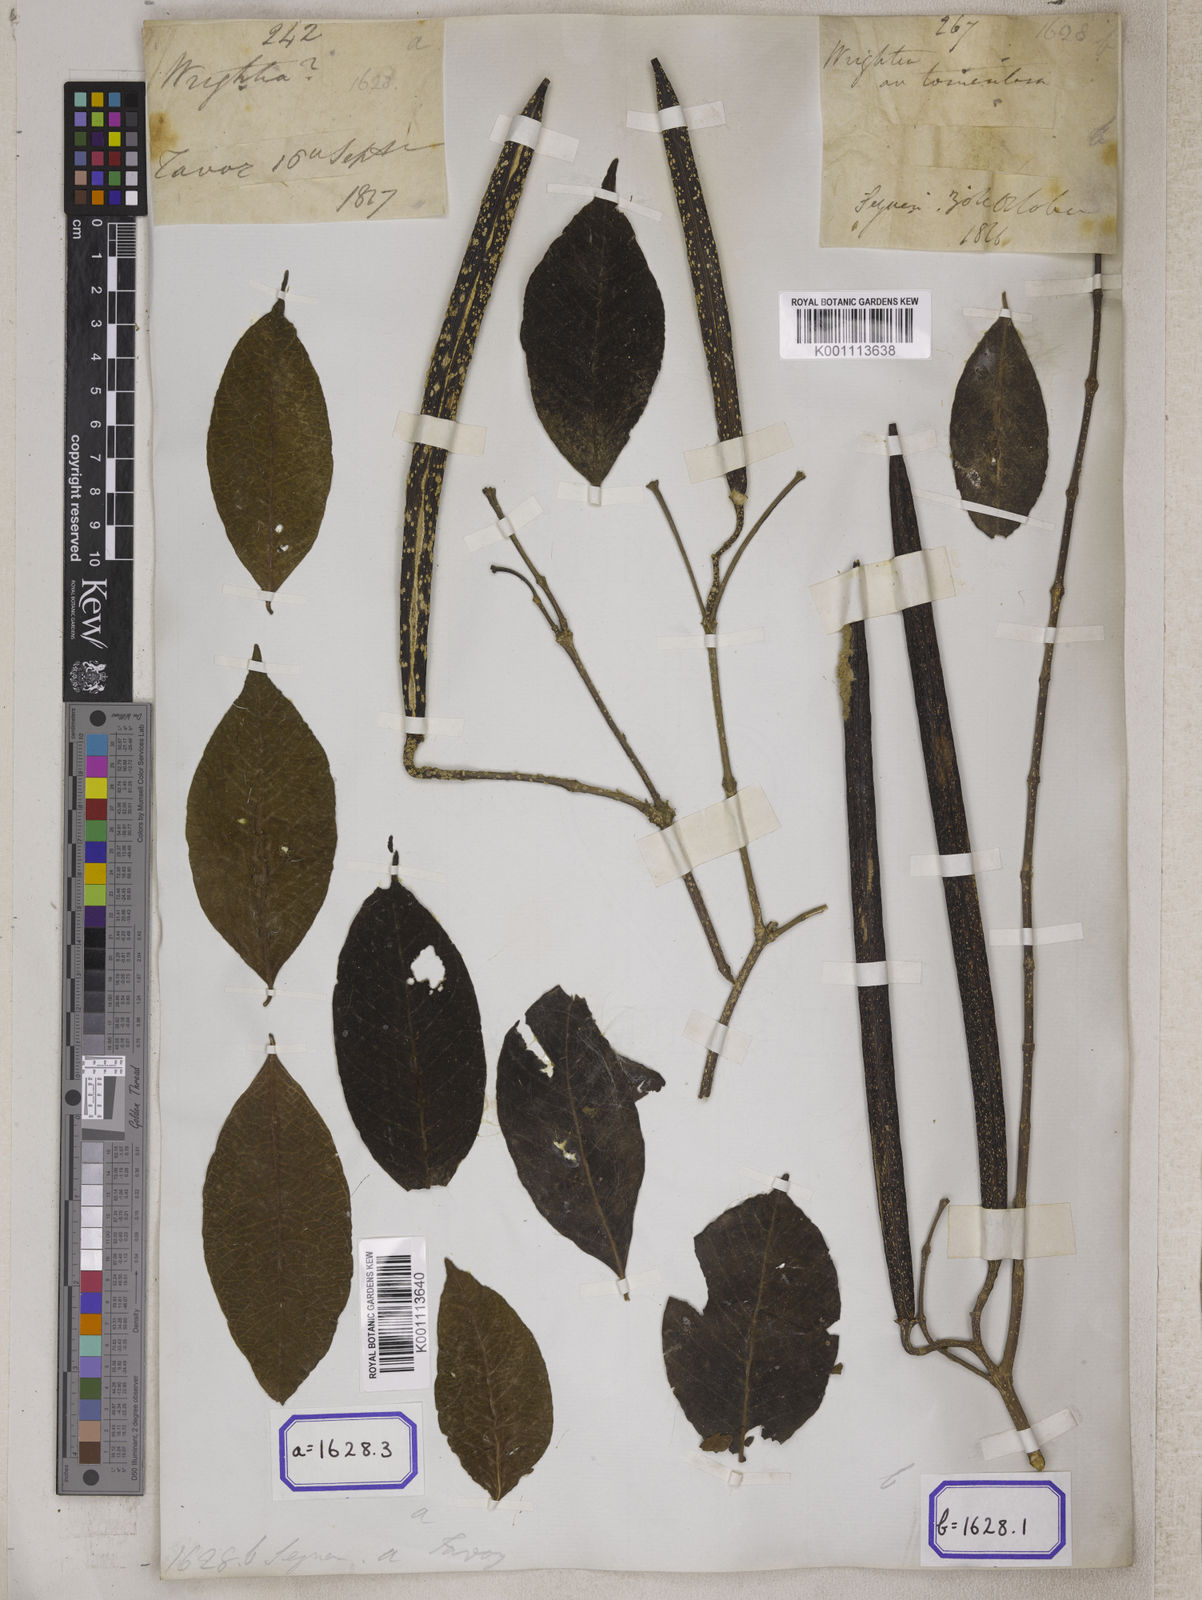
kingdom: Plantae
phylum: Tracheophyta
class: Magnoliopsida
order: Gentianales
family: Apocynaceae
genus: Wrightia
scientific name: Wrightia arborea
